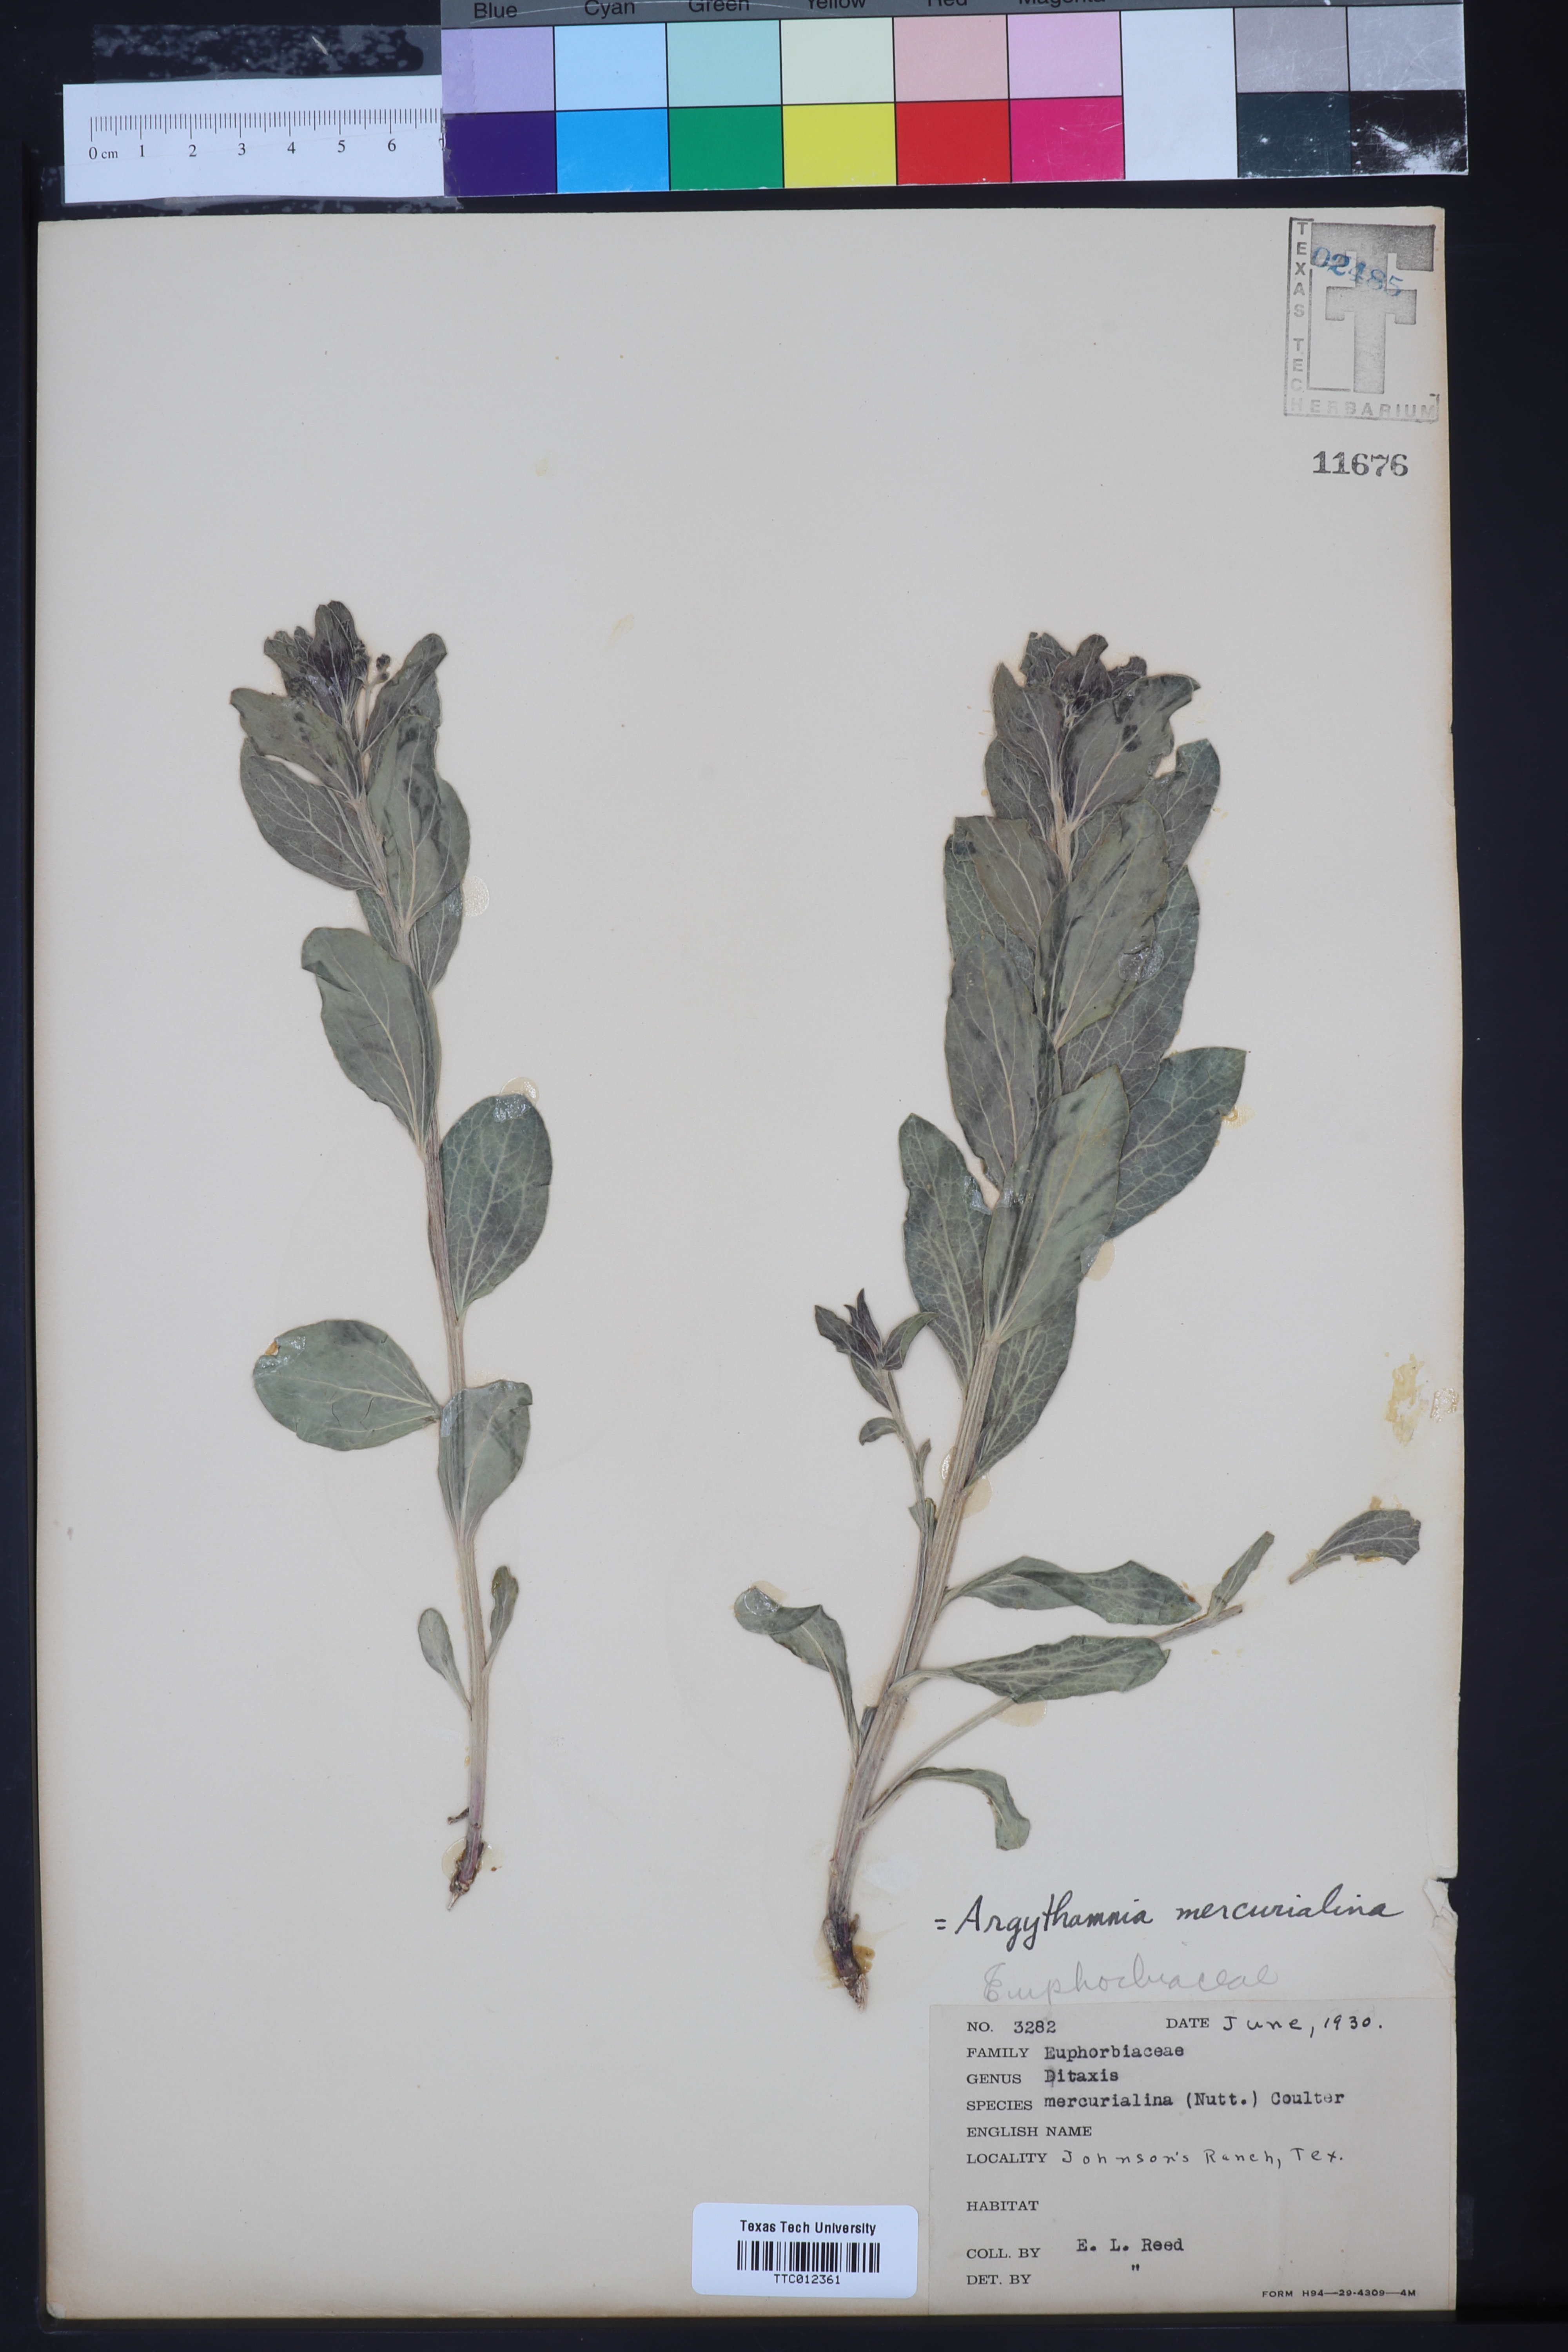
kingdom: Plantae
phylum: Tracheophyta
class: Magnoliopsida
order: Malpighiales
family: Euphorbiaceae
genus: Ditaxis
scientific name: Ditaxis mercurialina
